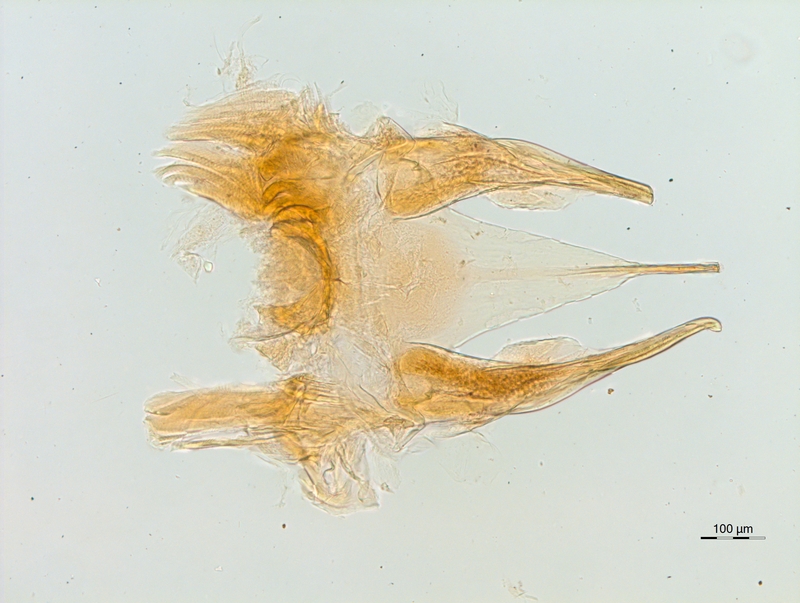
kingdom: Animalia
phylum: Arthropoda
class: Diplopoda
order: Chordeumatida
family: Chordeumatidae
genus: Orthochordeumella
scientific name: Orthochordeumella pallida
